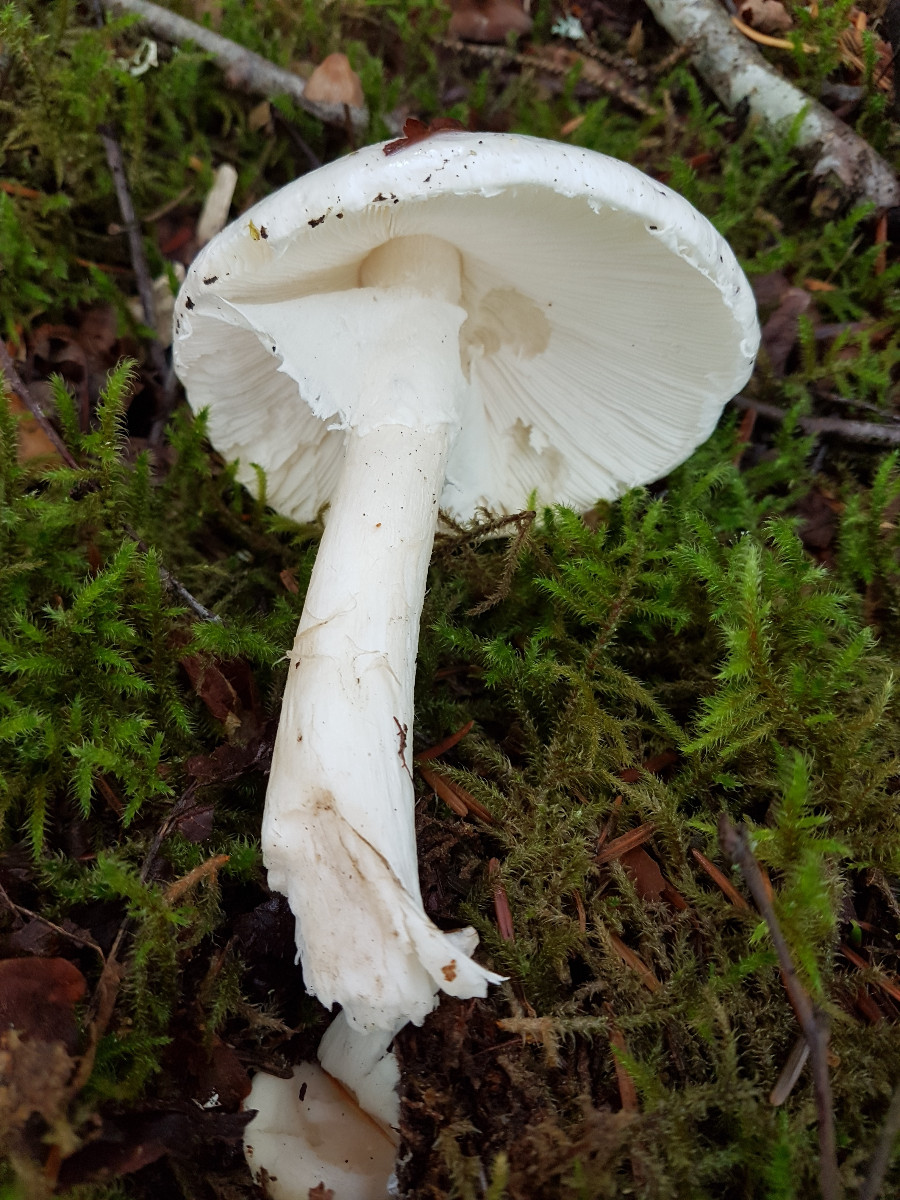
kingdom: Fungi
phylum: Basidiomycota
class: Agaricomycetes
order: Agaricales
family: Amanitaceae
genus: Amanita
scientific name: Amanita virosa
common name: snehvid fluesvamp
